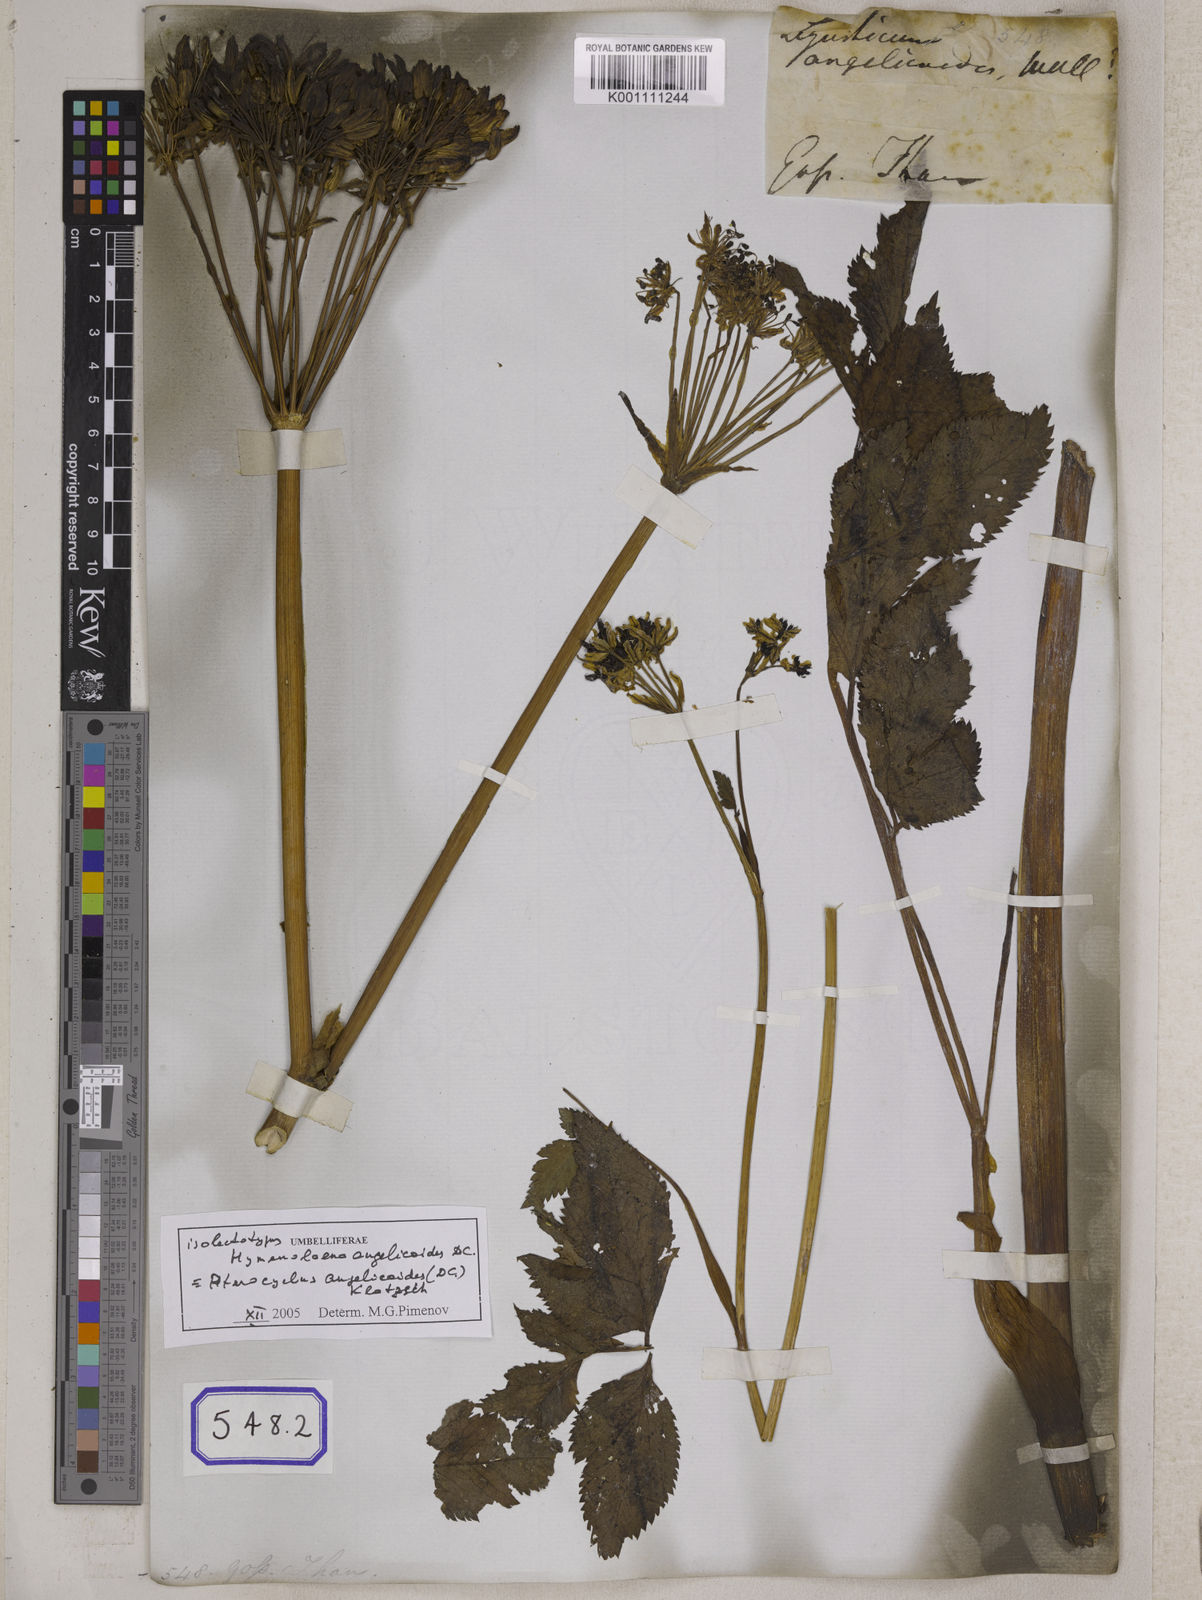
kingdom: Plantae
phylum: Tracheophyta
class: Magnoliopsida
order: Apiales
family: Apiaceae
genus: Pterocyclus
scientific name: Pterocyclus angelicoides
